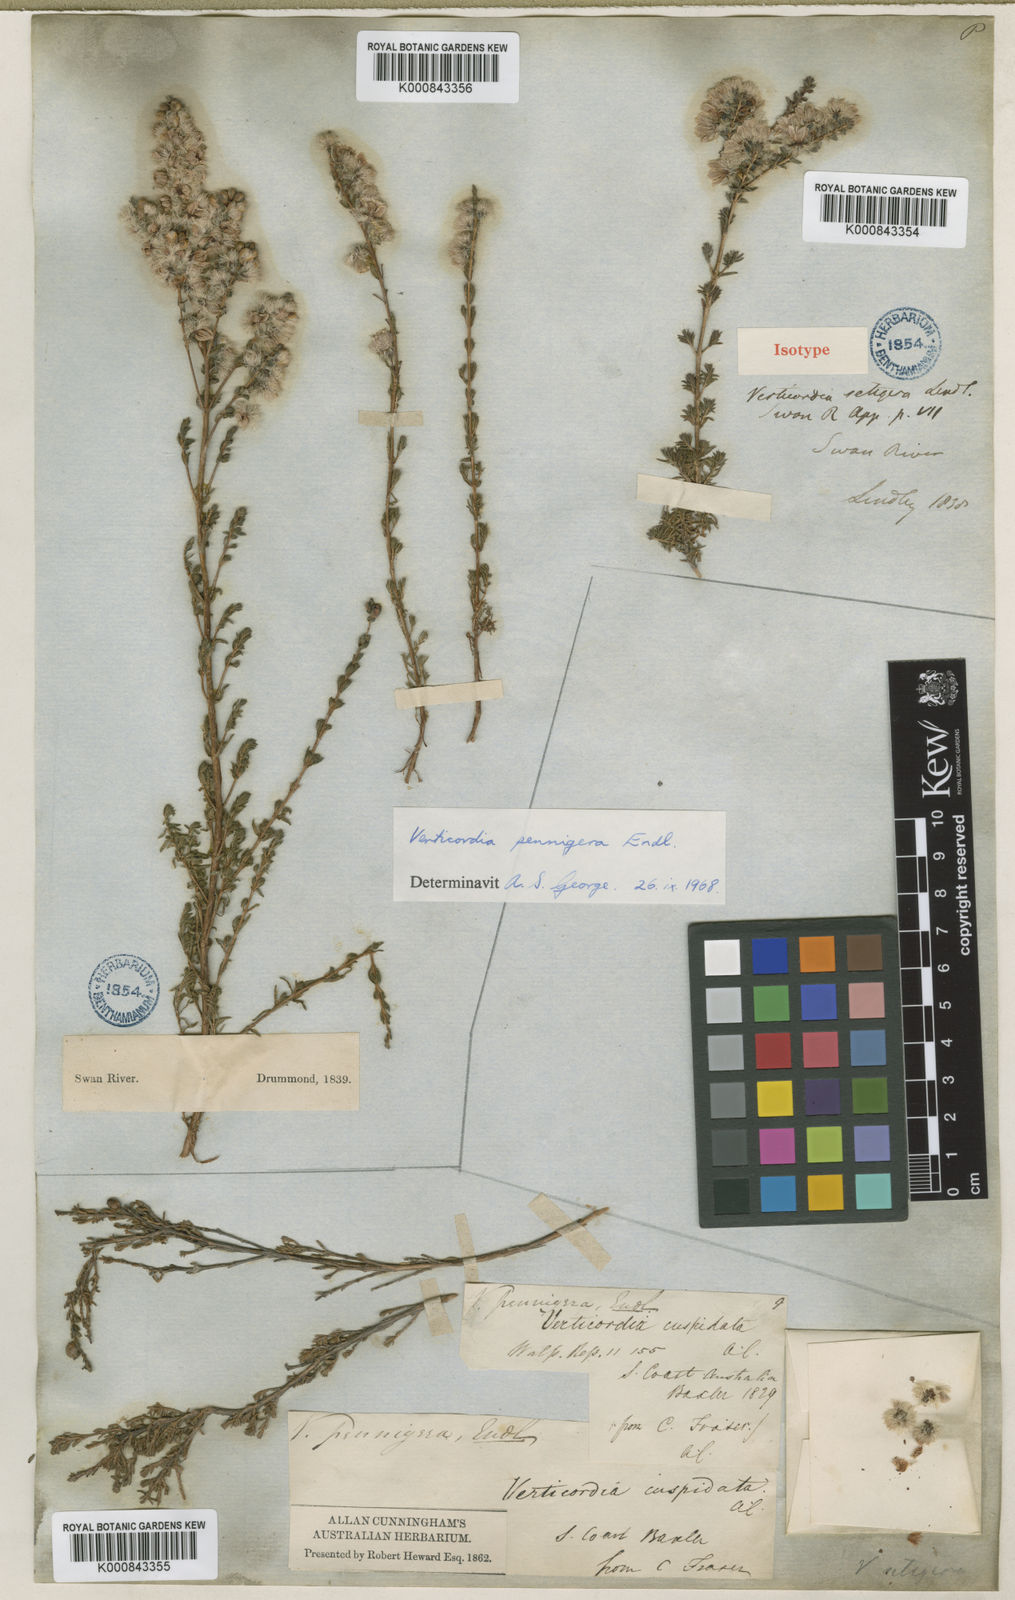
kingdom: Plantae
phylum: Tracheophyta
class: Magnoliopsida
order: Myrtales
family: Myrtaceae
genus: Verticordia
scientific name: Verticordia pennigera
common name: Native-tea
